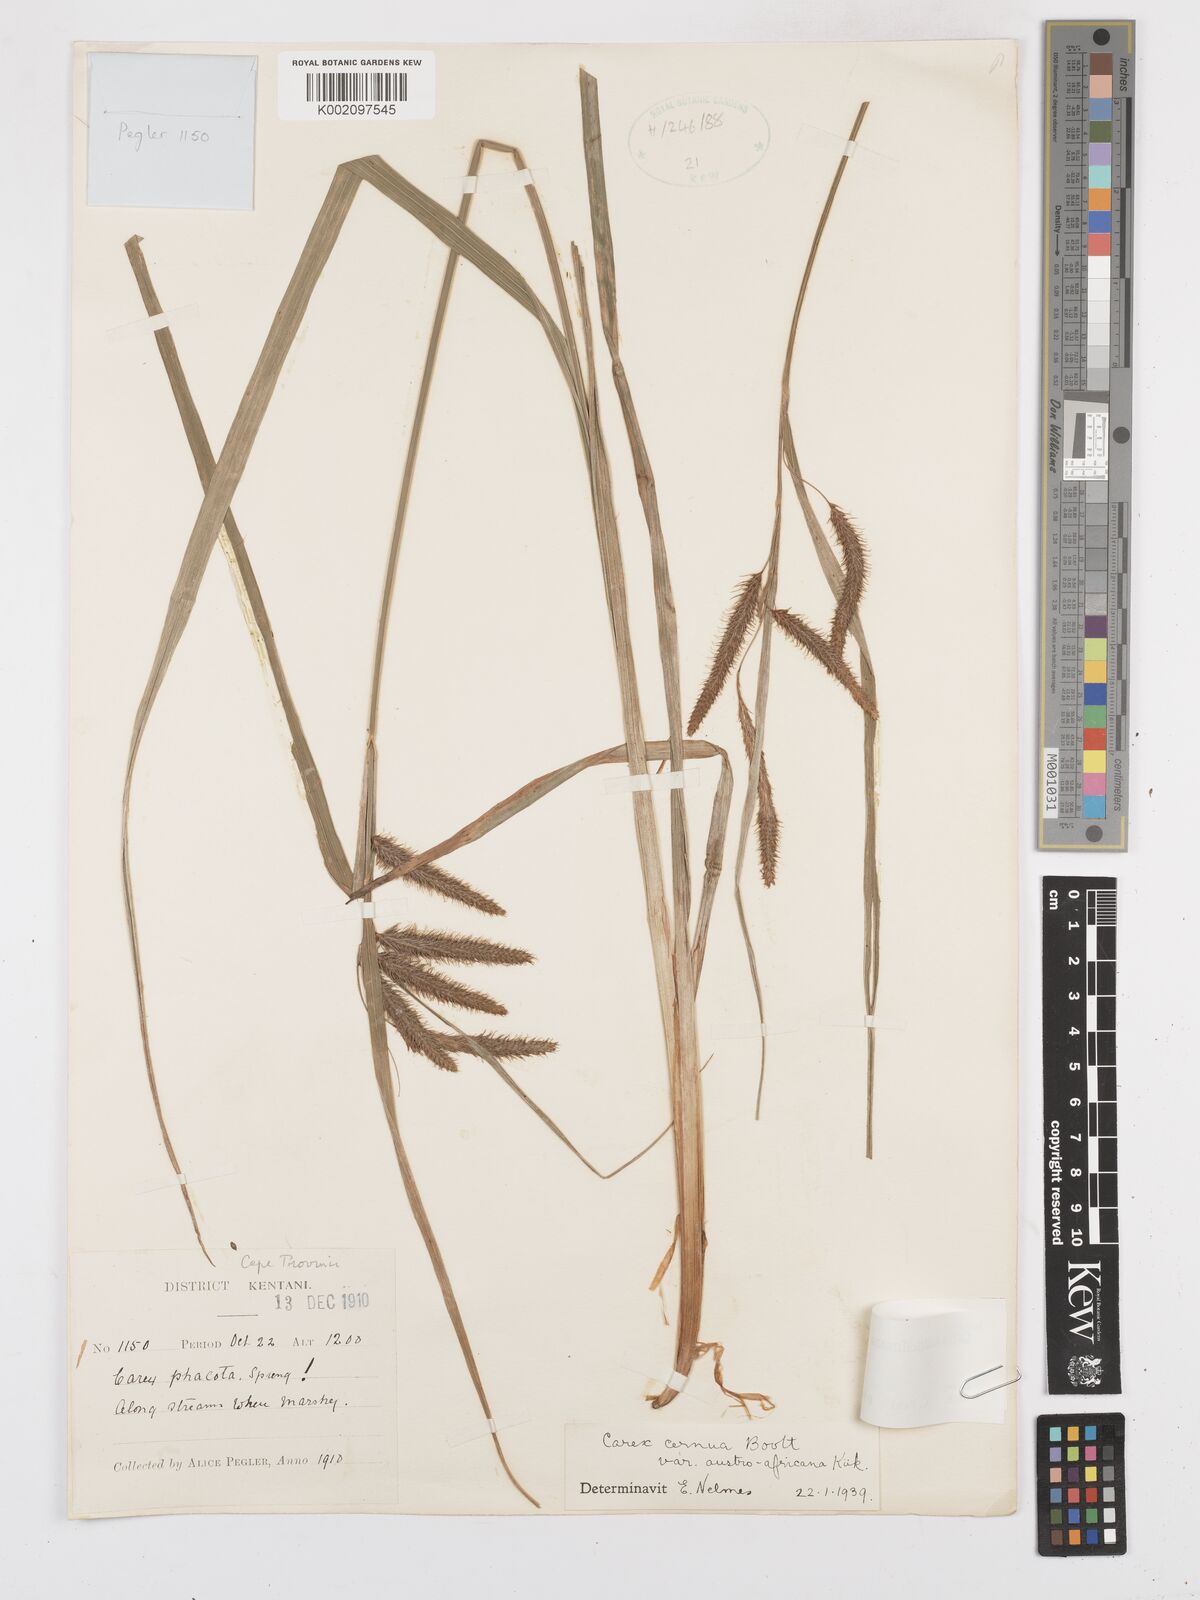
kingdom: Plantae
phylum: Tracheophyta
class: Liliopsida
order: Poales
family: Cyperaceae
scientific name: Cyperaceae
